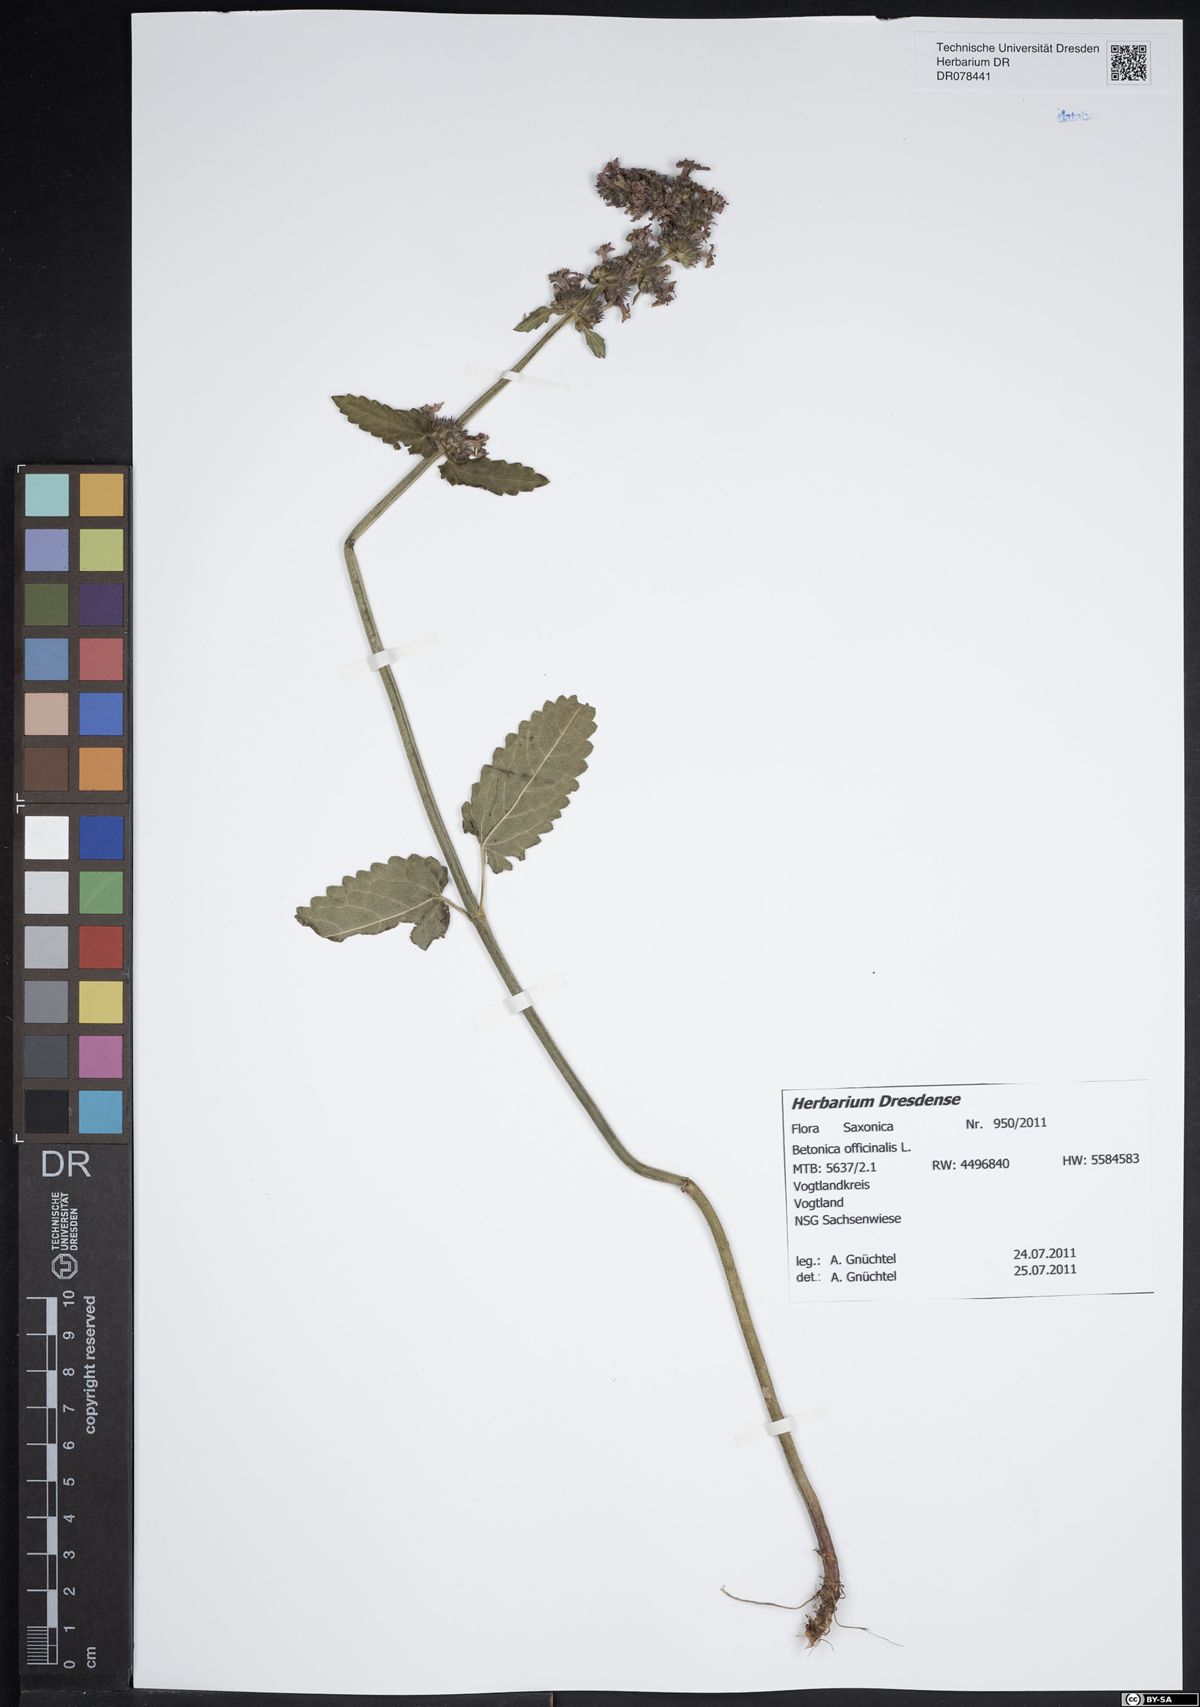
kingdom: Plantae
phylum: Tracheophyta
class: Magnoliopsida
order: Lamiales
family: Lamiaceae
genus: Betonica
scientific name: Betonica officinalis
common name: Bishop's-wort
